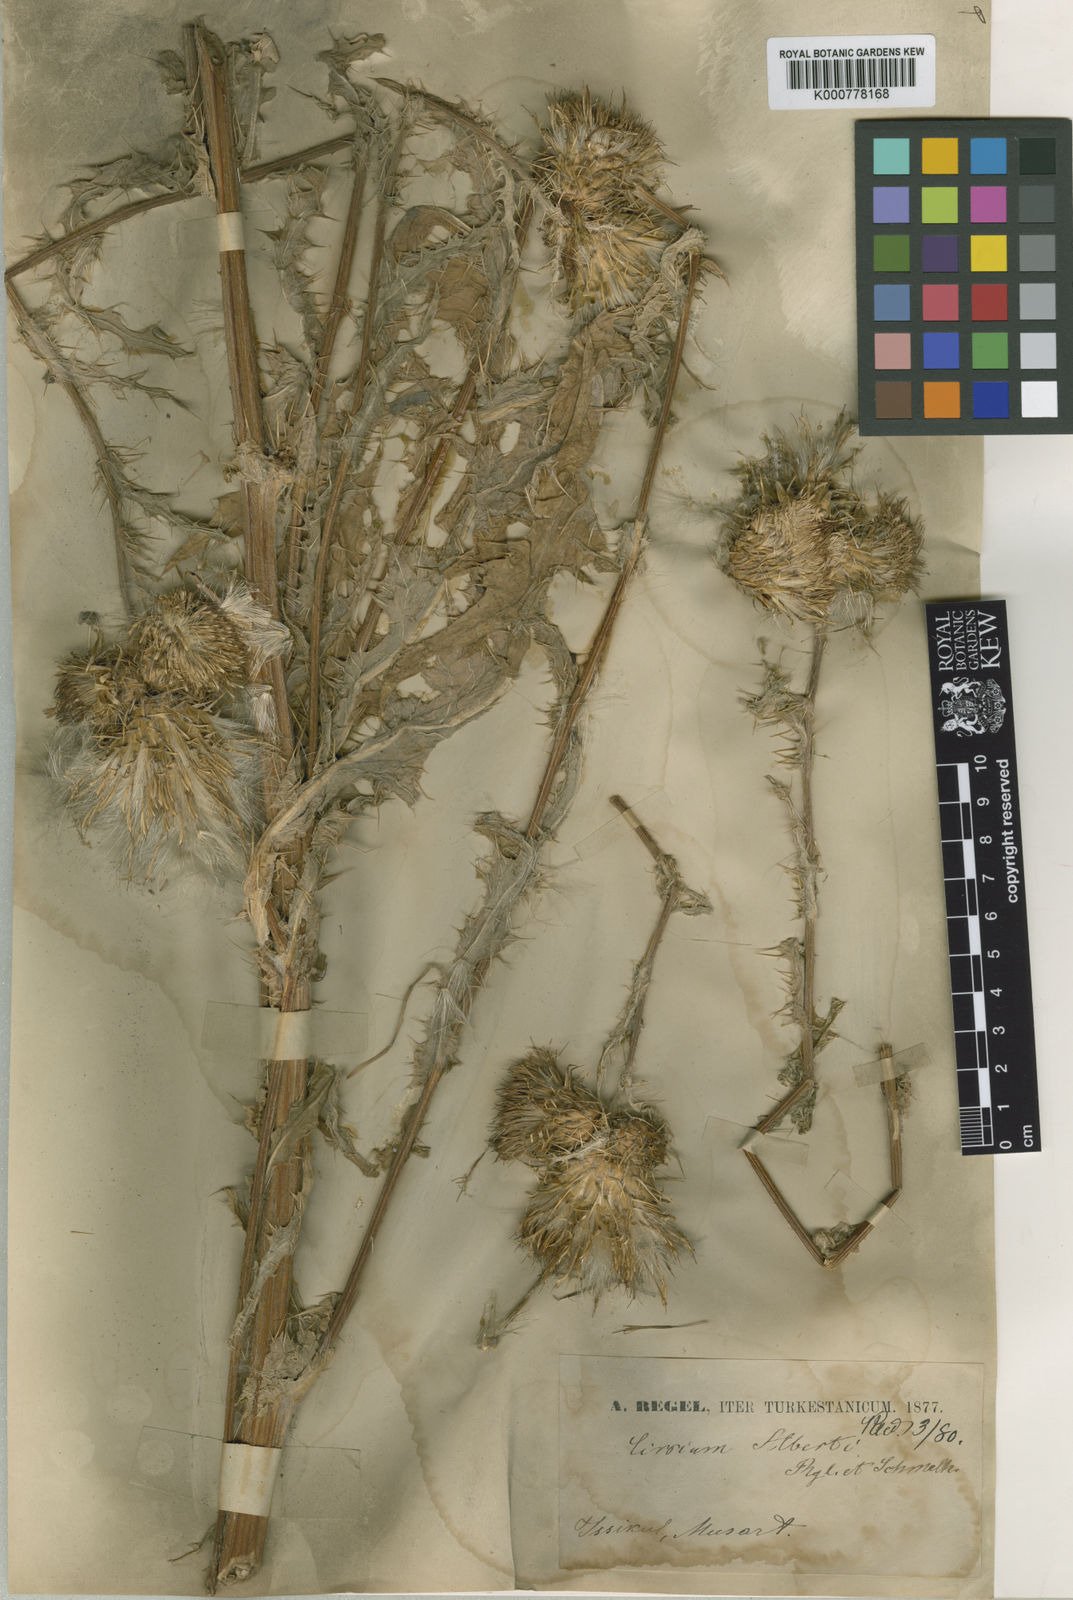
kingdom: Plantae
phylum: Tracheophyta
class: Magnoliopsida
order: Asterales
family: Asteraceae
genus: Cirsium
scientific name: Cirsium alberti
